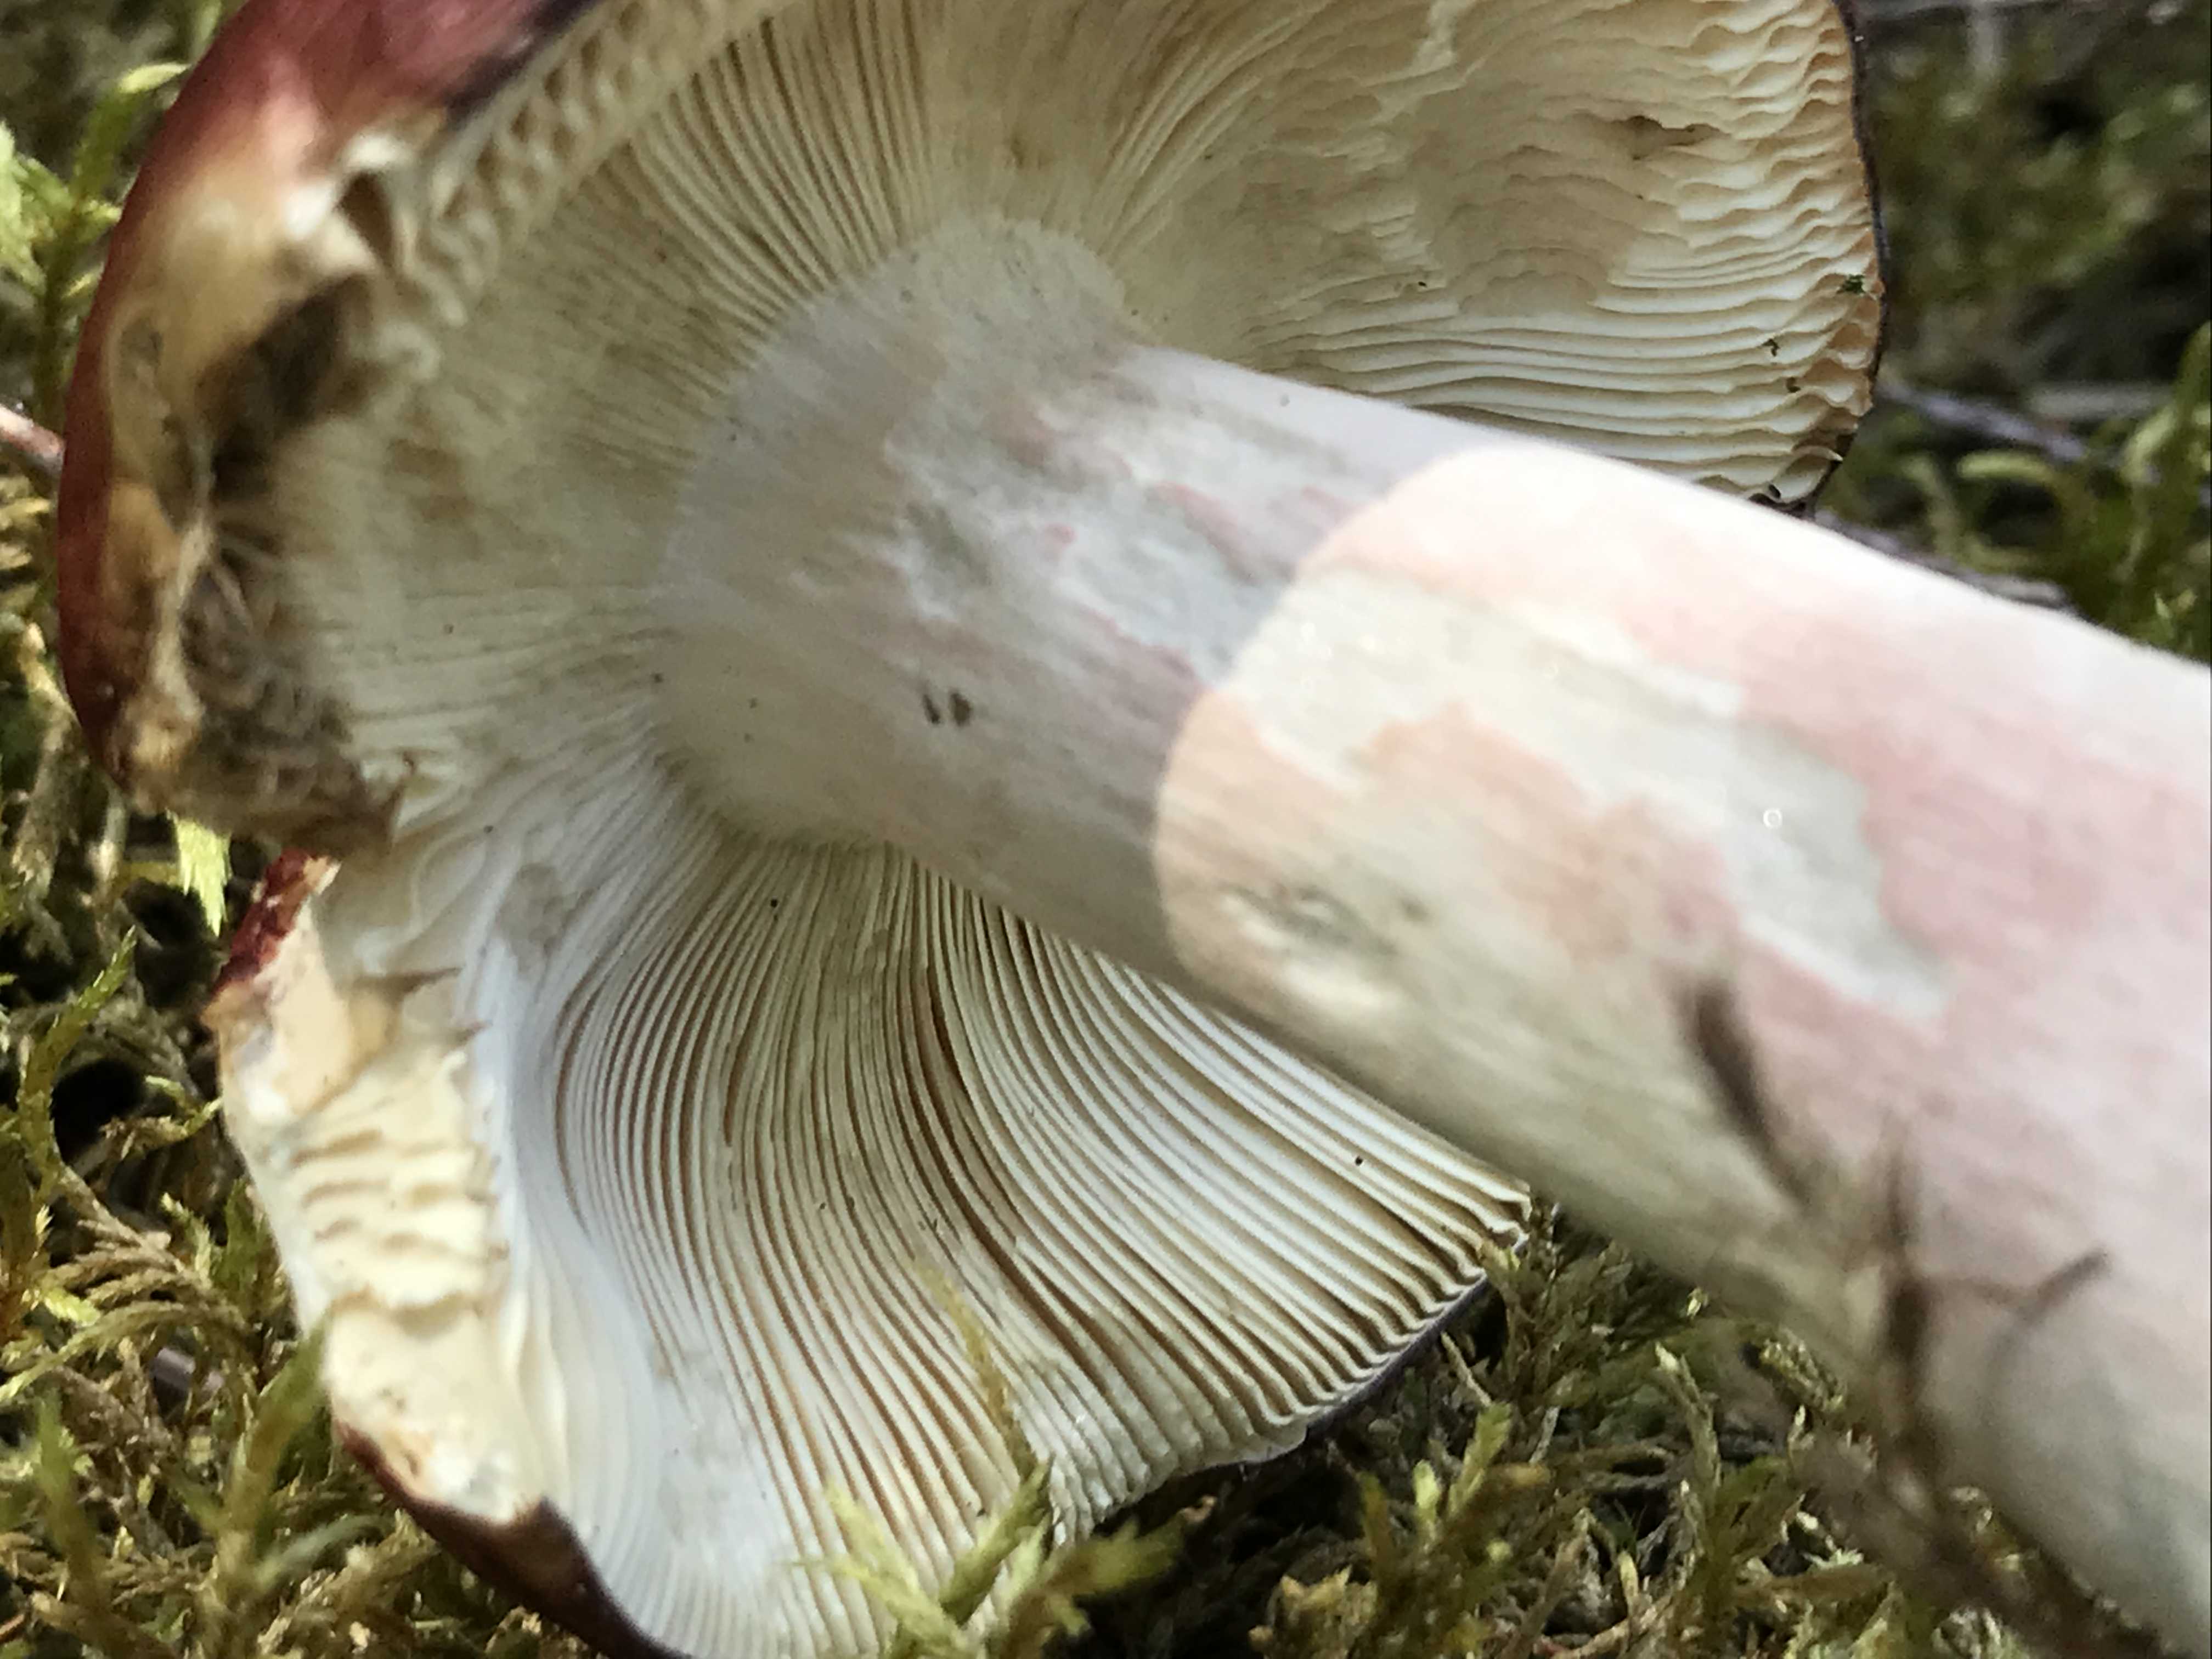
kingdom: Fungi
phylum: Basidiomycota
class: Agaricomycetes
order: Russulales
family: Russulaceae
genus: Russula
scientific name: Russula paludosa
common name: prægtig skørhat
